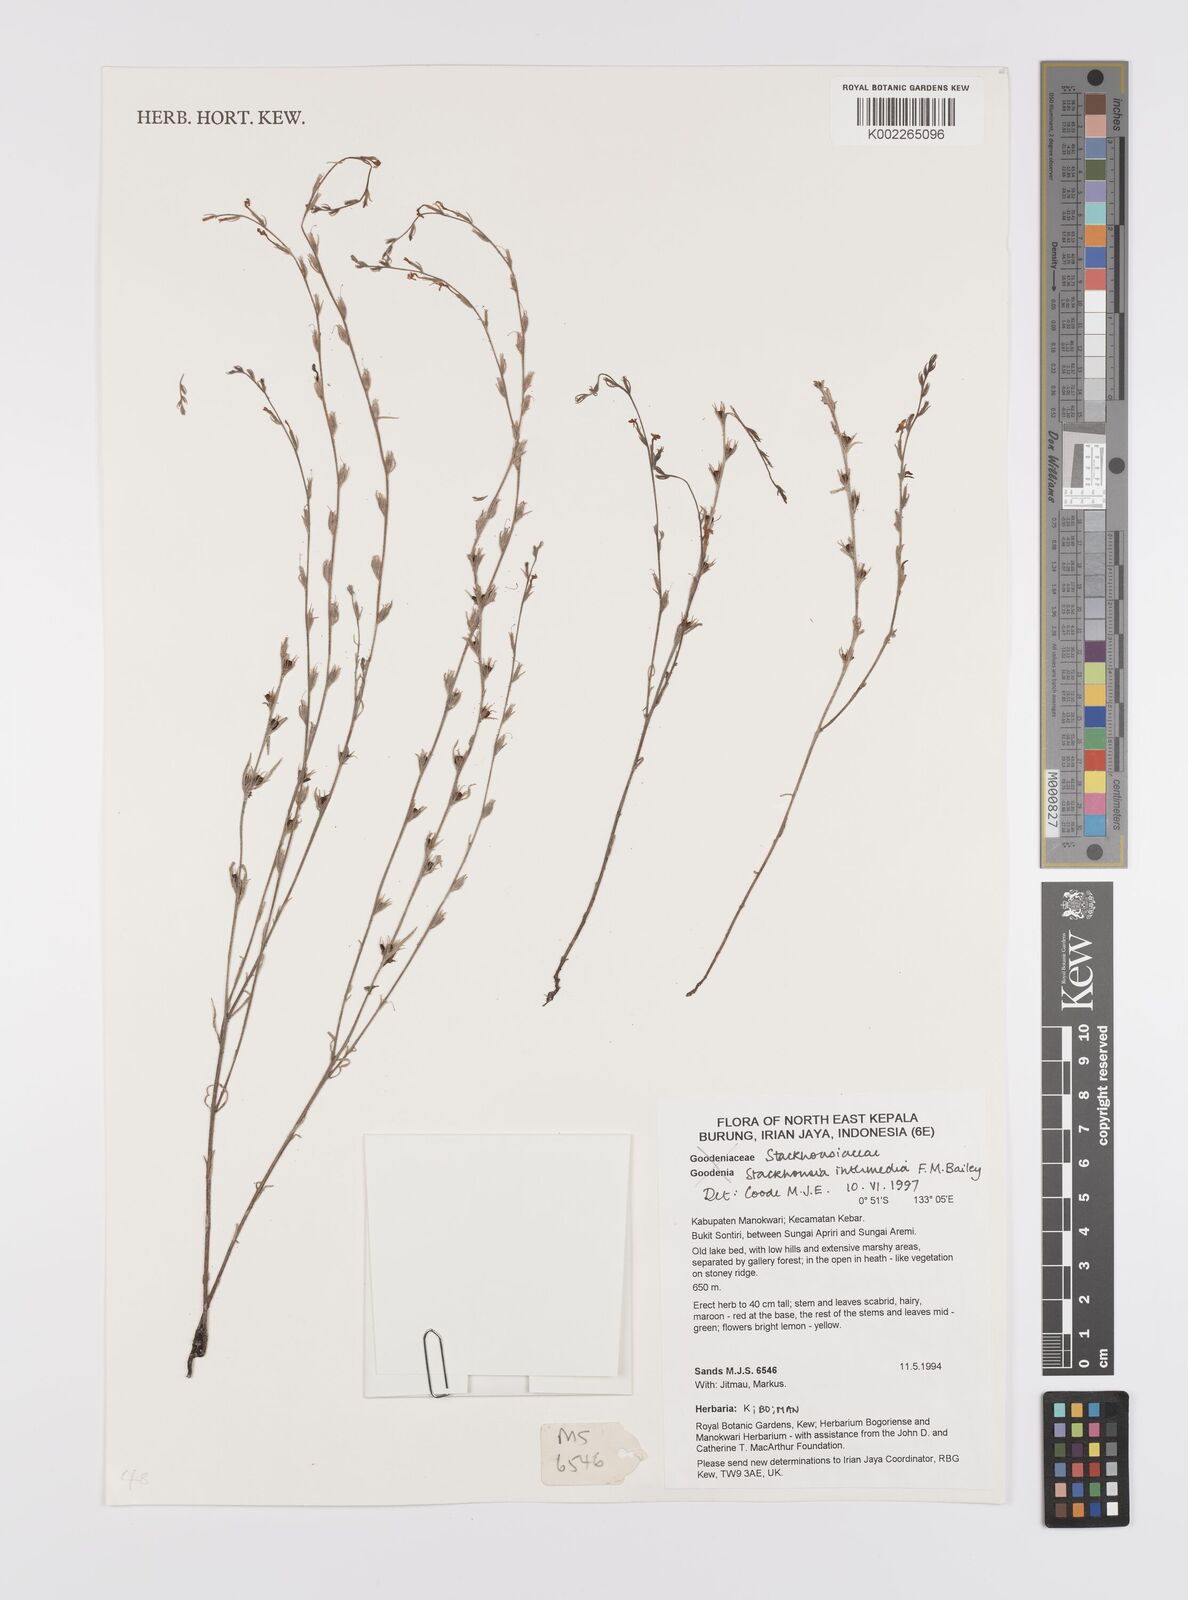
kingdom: Plantae
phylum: Tracheophyta
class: Magnoliopsida
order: Celastrales
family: Celastraceae
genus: Stackhousia
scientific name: Stackhousia intermedia
